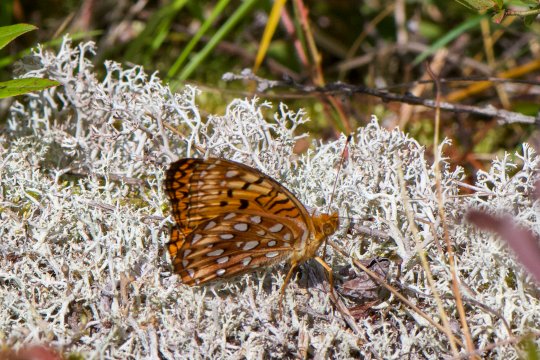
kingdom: Animalia
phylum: Arthropoda
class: Insecta
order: Lepidoptera
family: Nymphalidae
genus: Speyeria
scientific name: Speyeria aphrodite
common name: Aphrodite Fritillary
